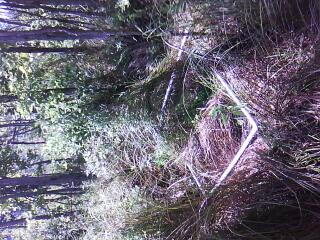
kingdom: Plantae
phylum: Tracheophyta
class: Magnoliopsida
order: Rosales
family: Rosaceae
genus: Spiraea
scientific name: Spiraea alba
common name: Pale bridewort
